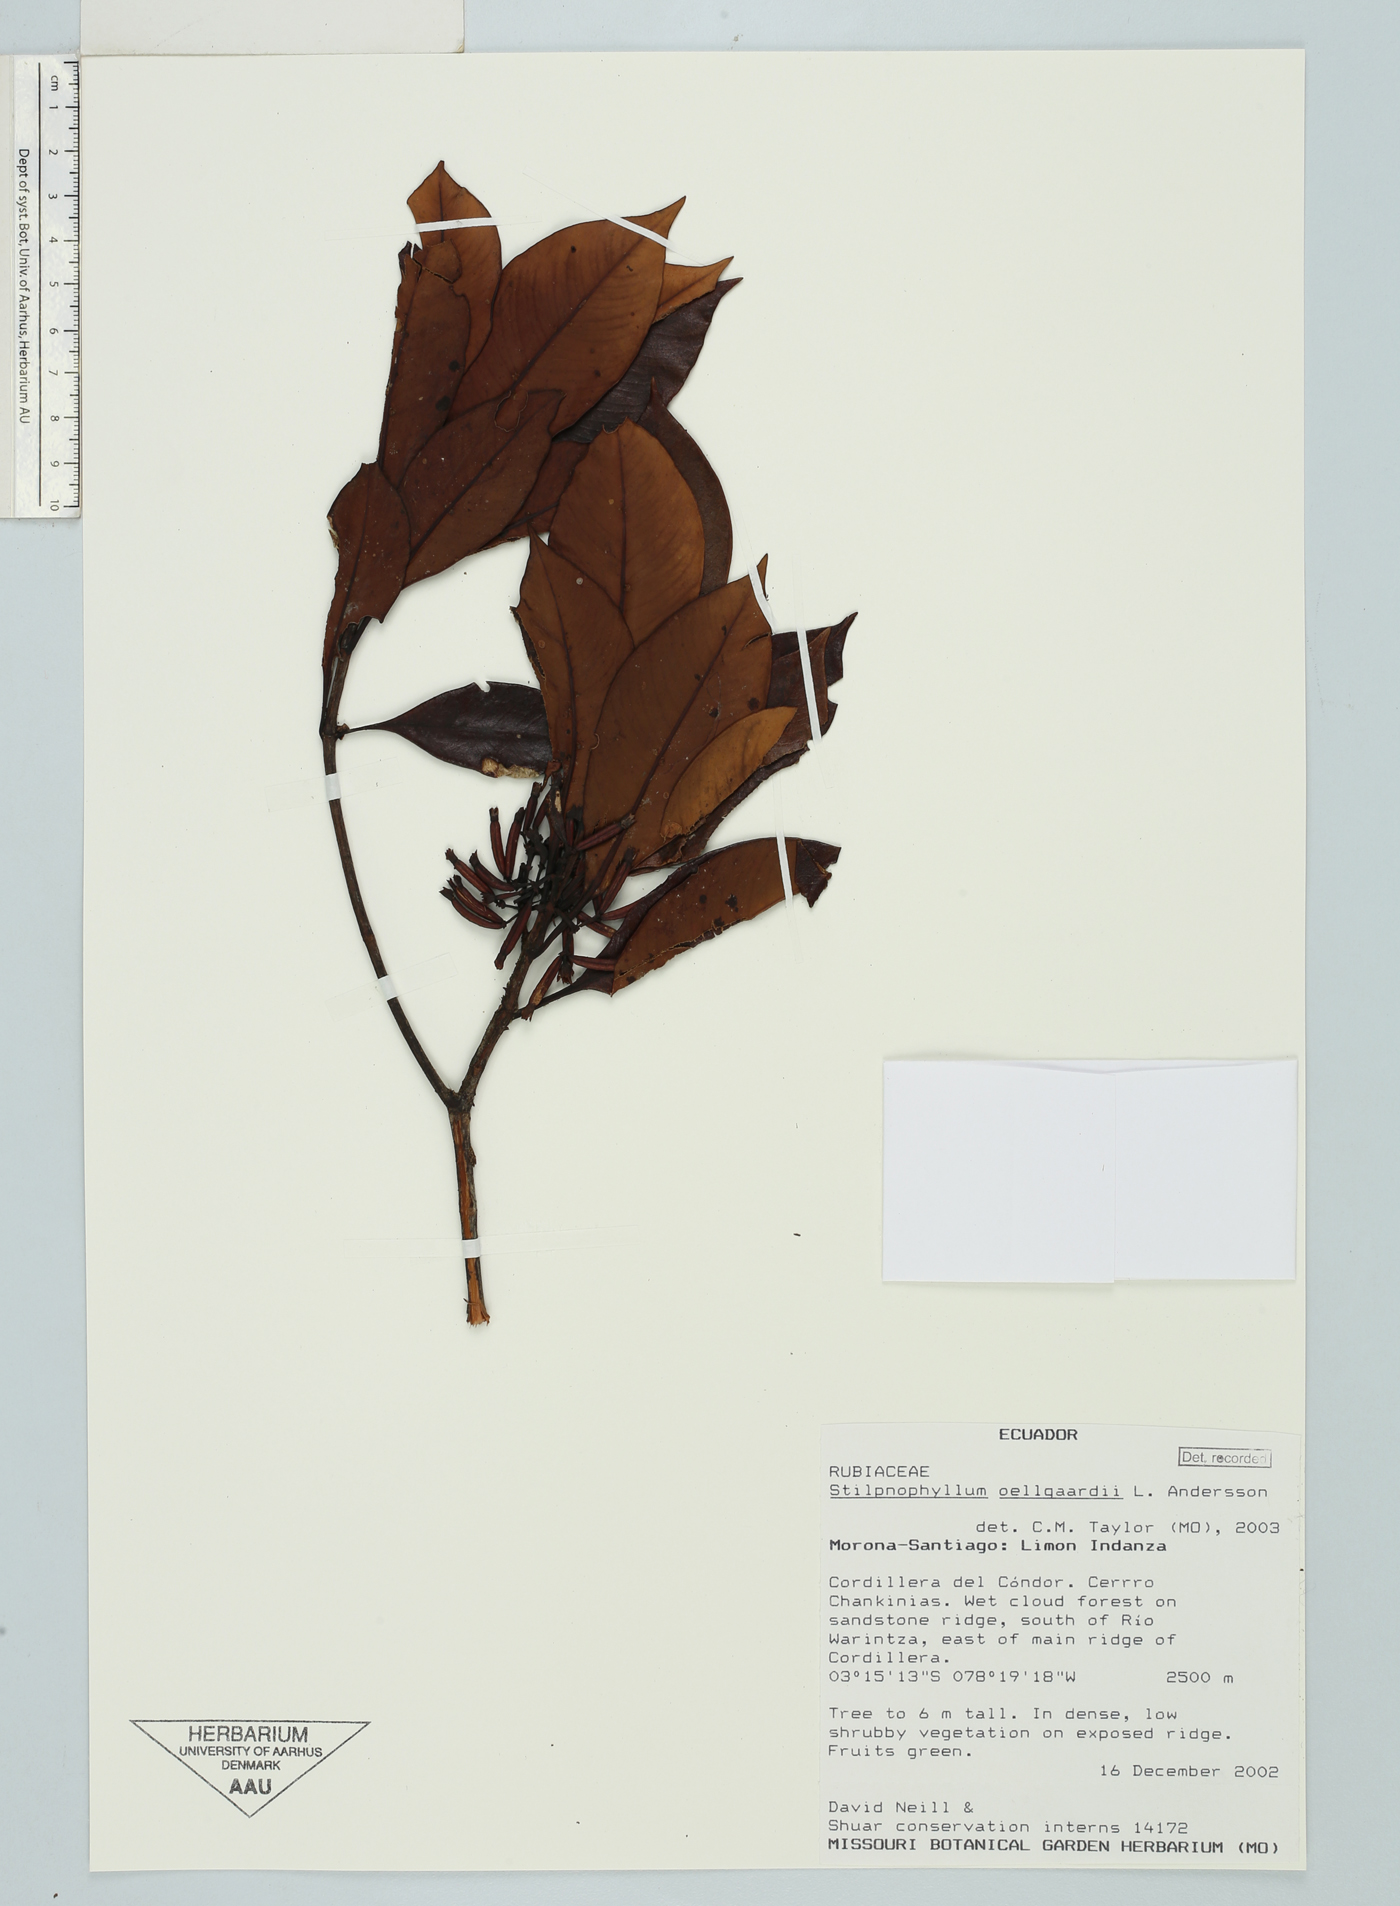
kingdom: Plantae
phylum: Tracheophyta
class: Magnoliopsida
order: Gentianales
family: Rubiaceae
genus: Stilpnophyllum
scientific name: Stilpnophyllum oellgaardii
